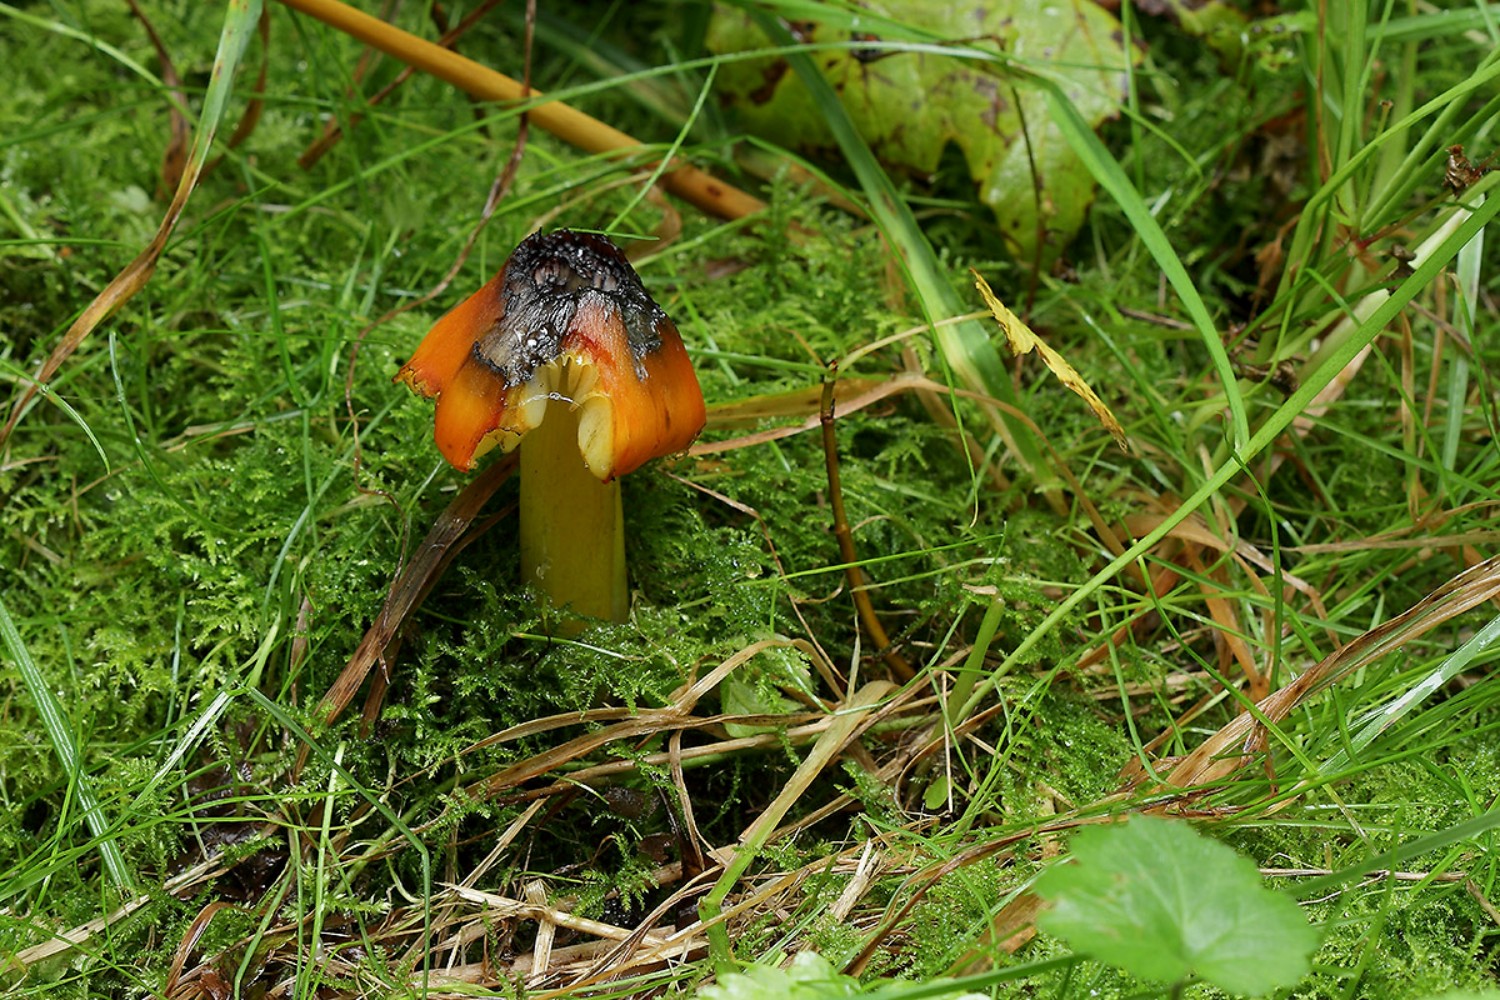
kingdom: Fungi
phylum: Basidiomycota
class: Agaricomycetes
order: Agaricales
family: Hygrophoraceae
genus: Hygrocybe
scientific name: Hygrocybe conica
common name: kegle-vokshat
